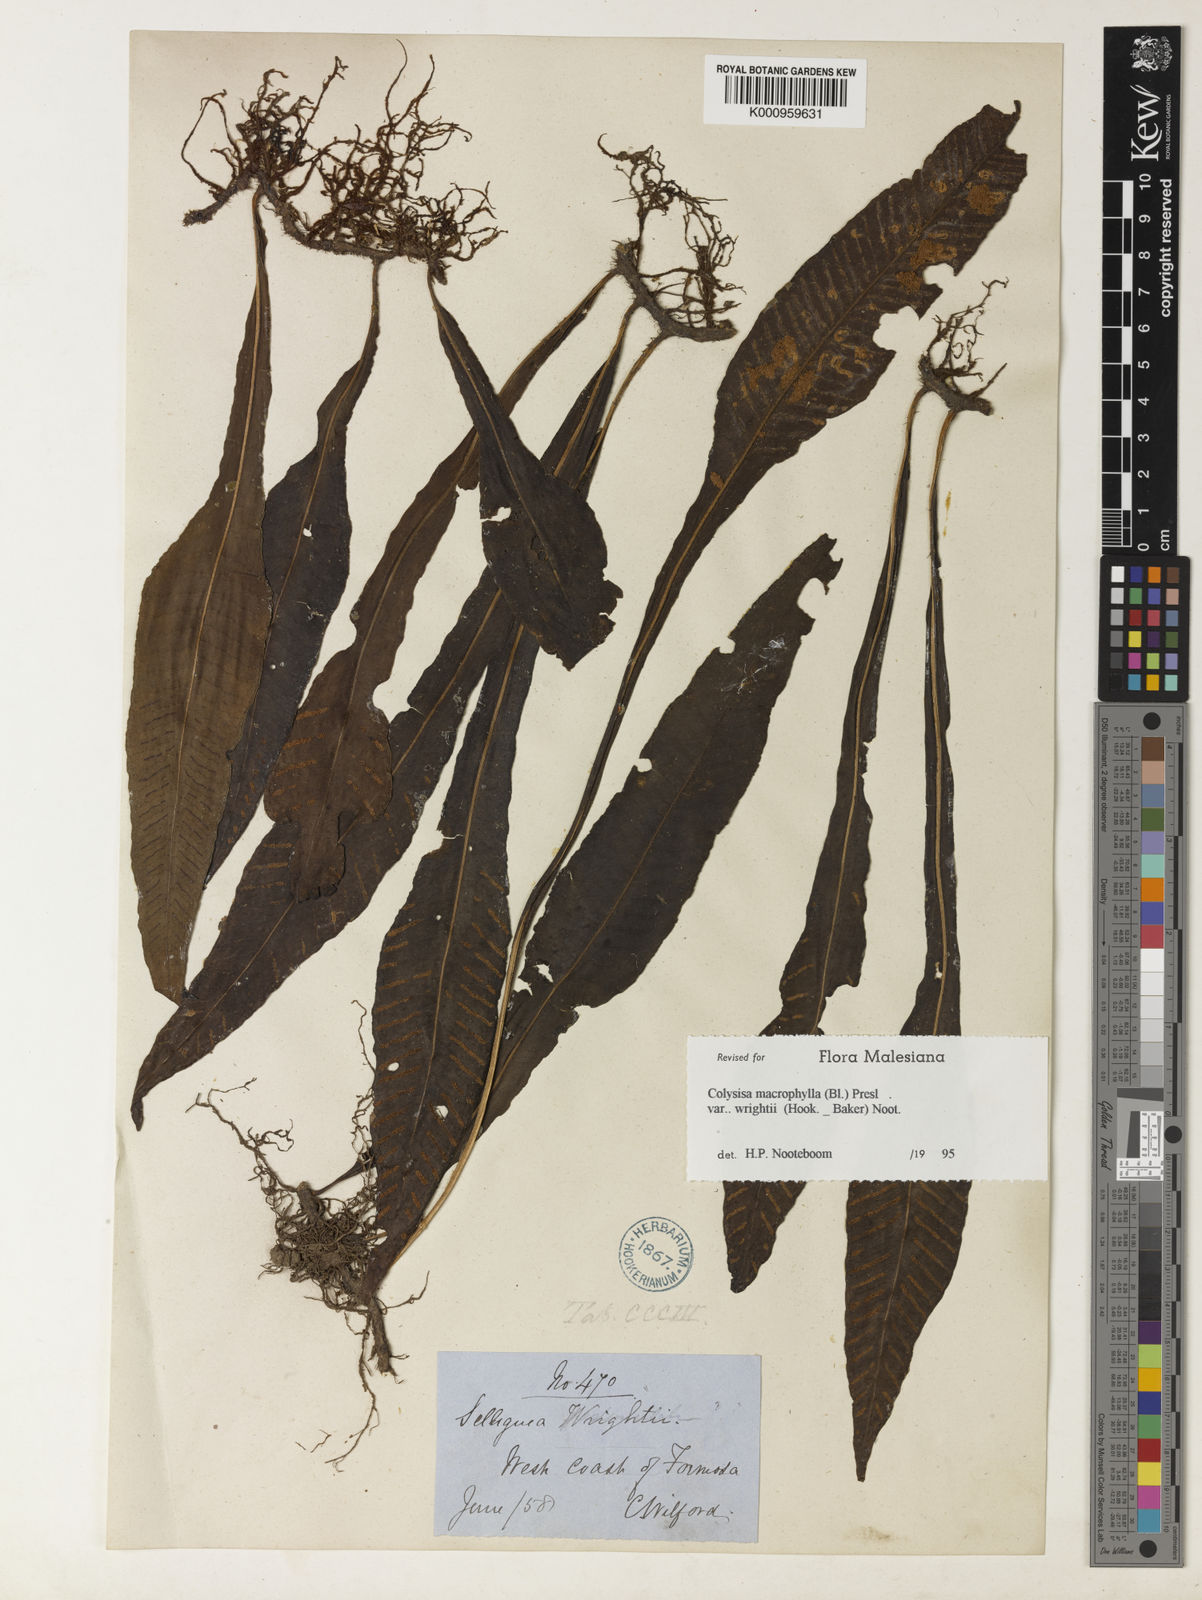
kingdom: Plantae
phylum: Tracheophyta
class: Polypodiopsida
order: Polypodiales
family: Polypodiaceae
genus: Leptochilus
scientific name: Leptochilus wrightii
